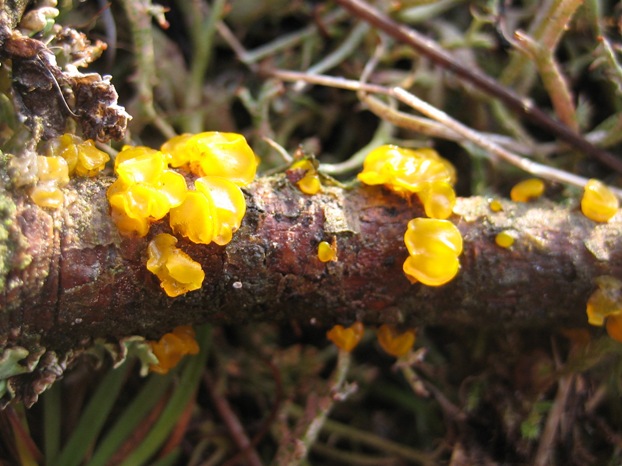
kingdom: Fungi
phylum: Basidiomycota
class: Dacrymycetes
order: Dacrymycetales
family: Dacrymycetaceae
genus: Guepiniopsis
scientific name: Guepiniopsis estonica
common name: gylden tåresvamp
